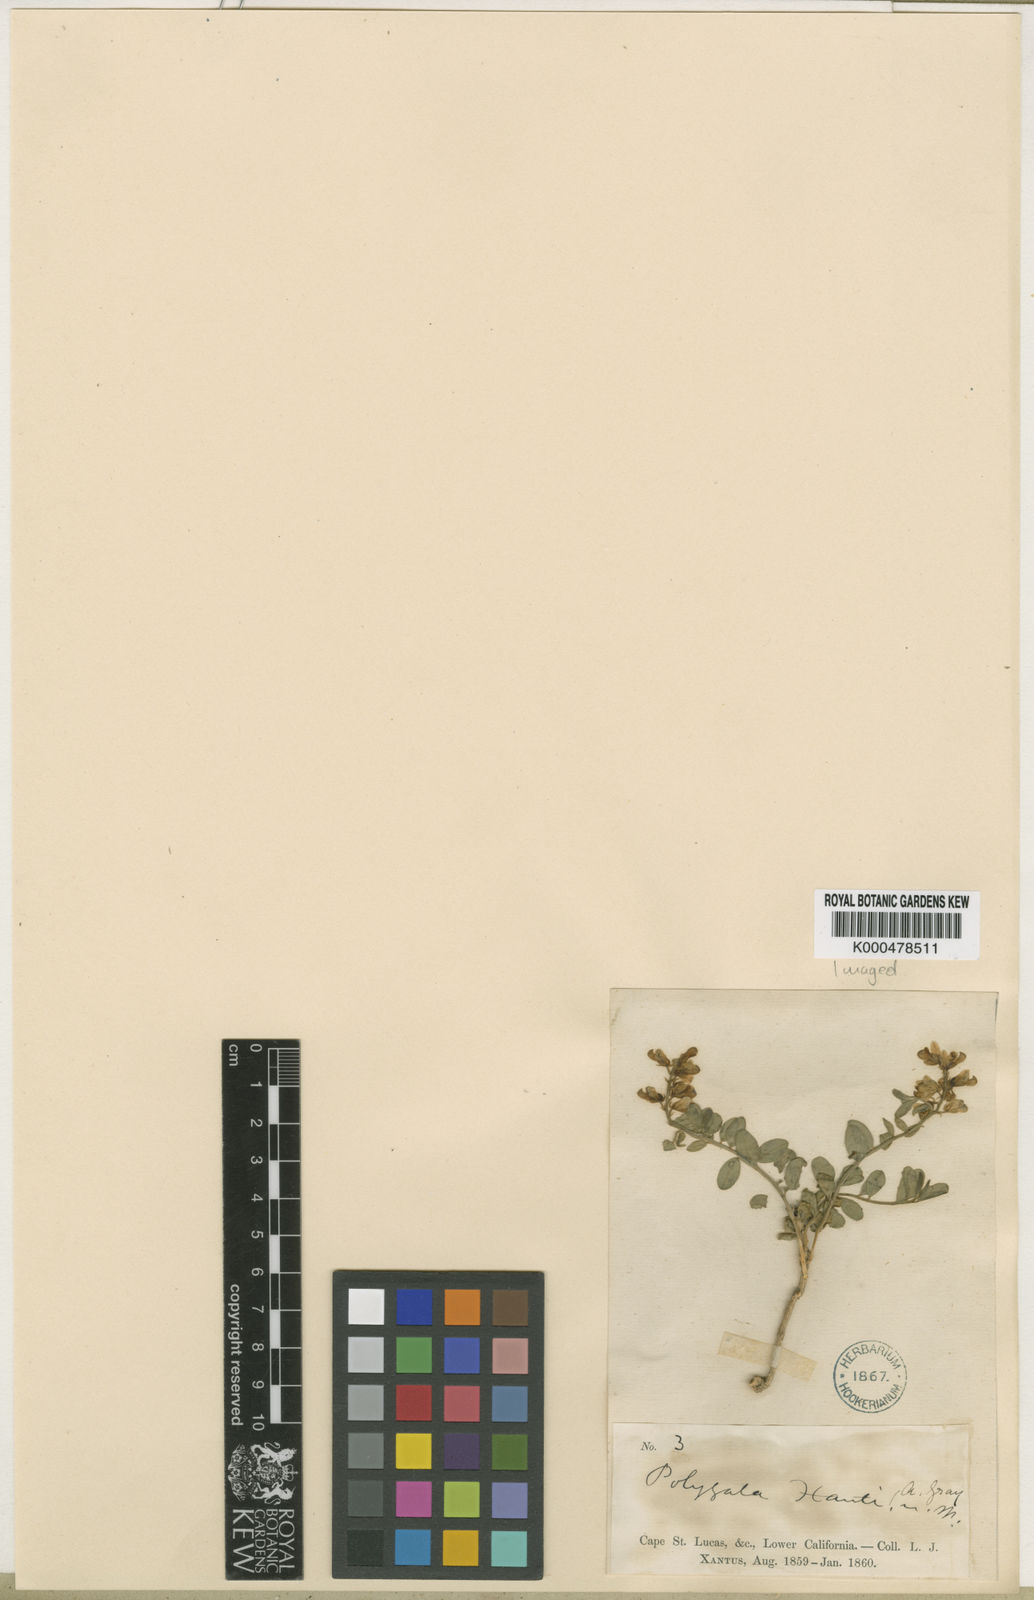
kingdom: Plantae
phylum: Tracheophyta
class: Magnoliopsida
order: Fabales
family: Polygalaceae
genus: Polygala
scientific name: Polygala xanti
